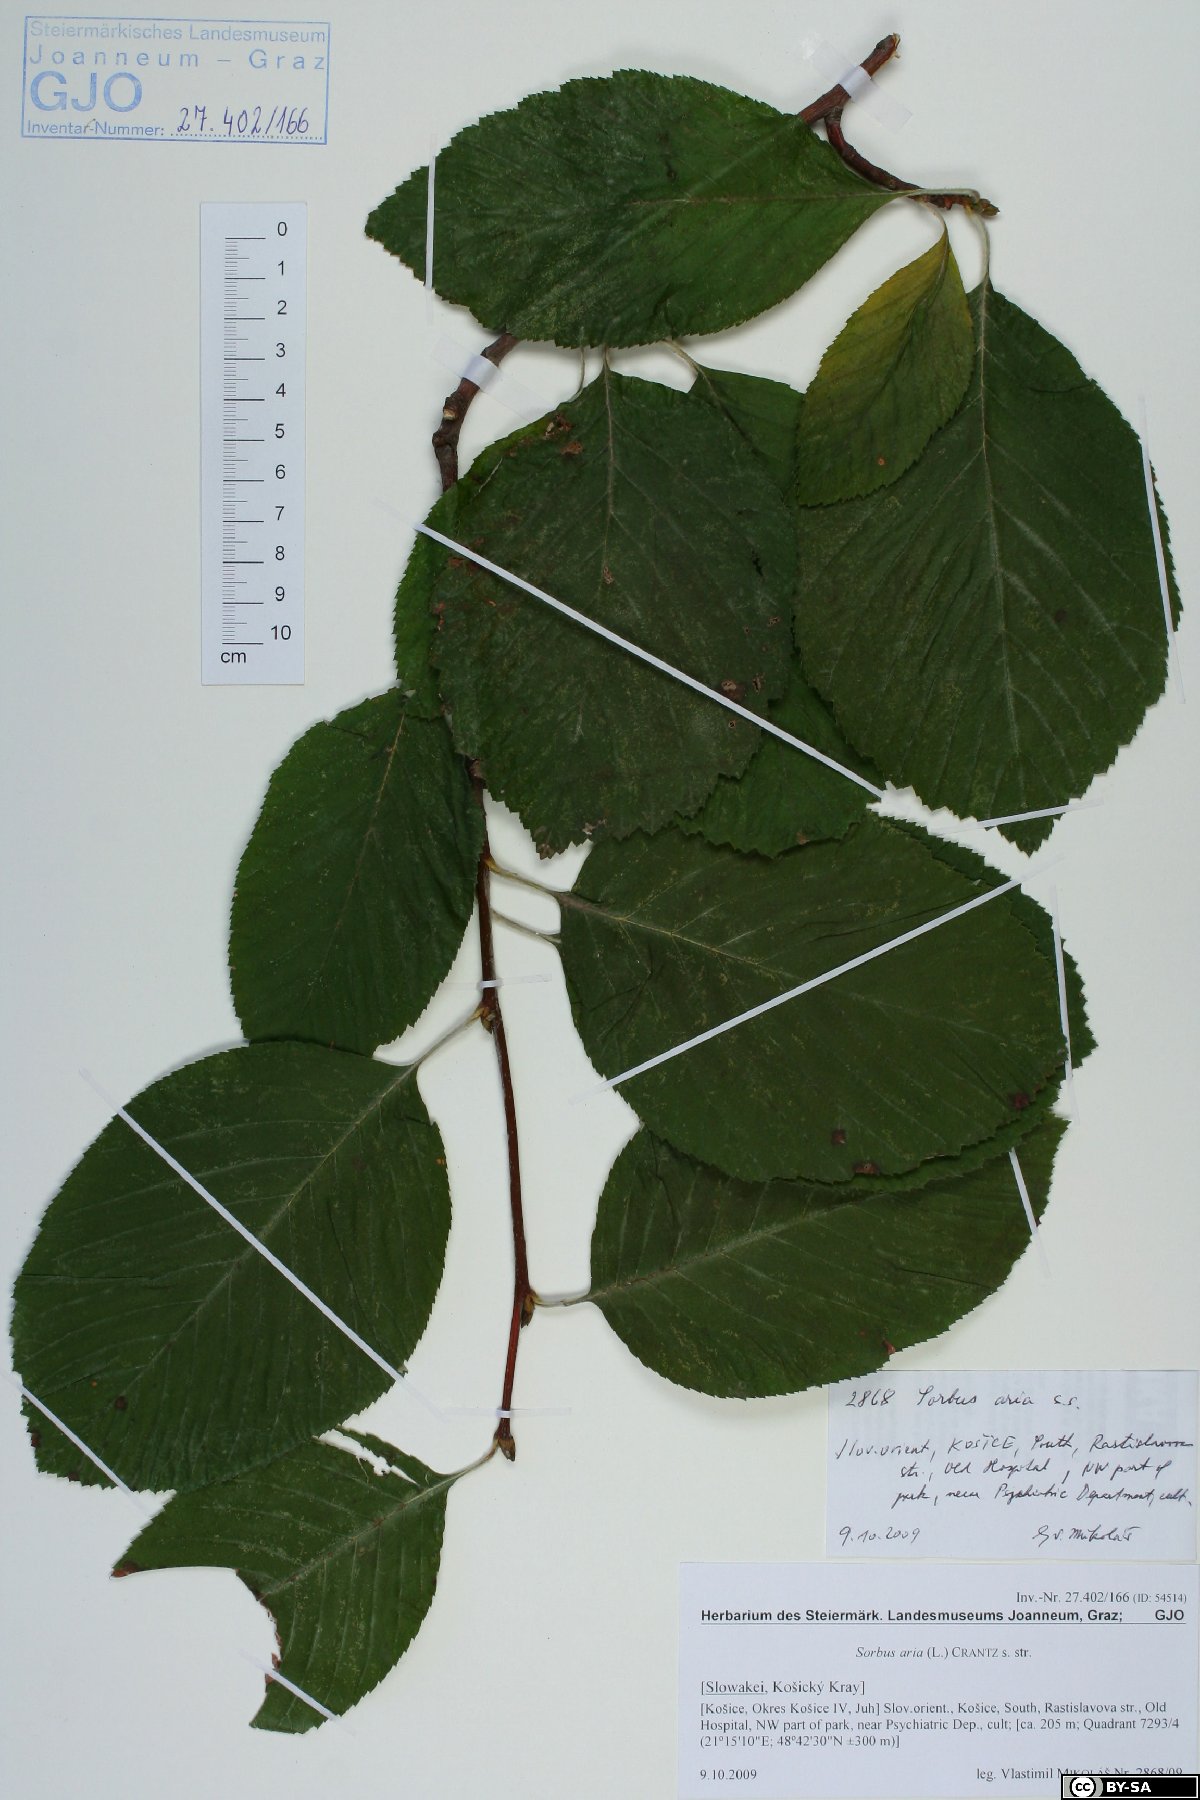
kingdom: Plantae
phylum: Tracheophyta
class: Magnoliopsida
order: Rosales
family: Rosaceae
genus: Aria
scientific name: Aria edulis
